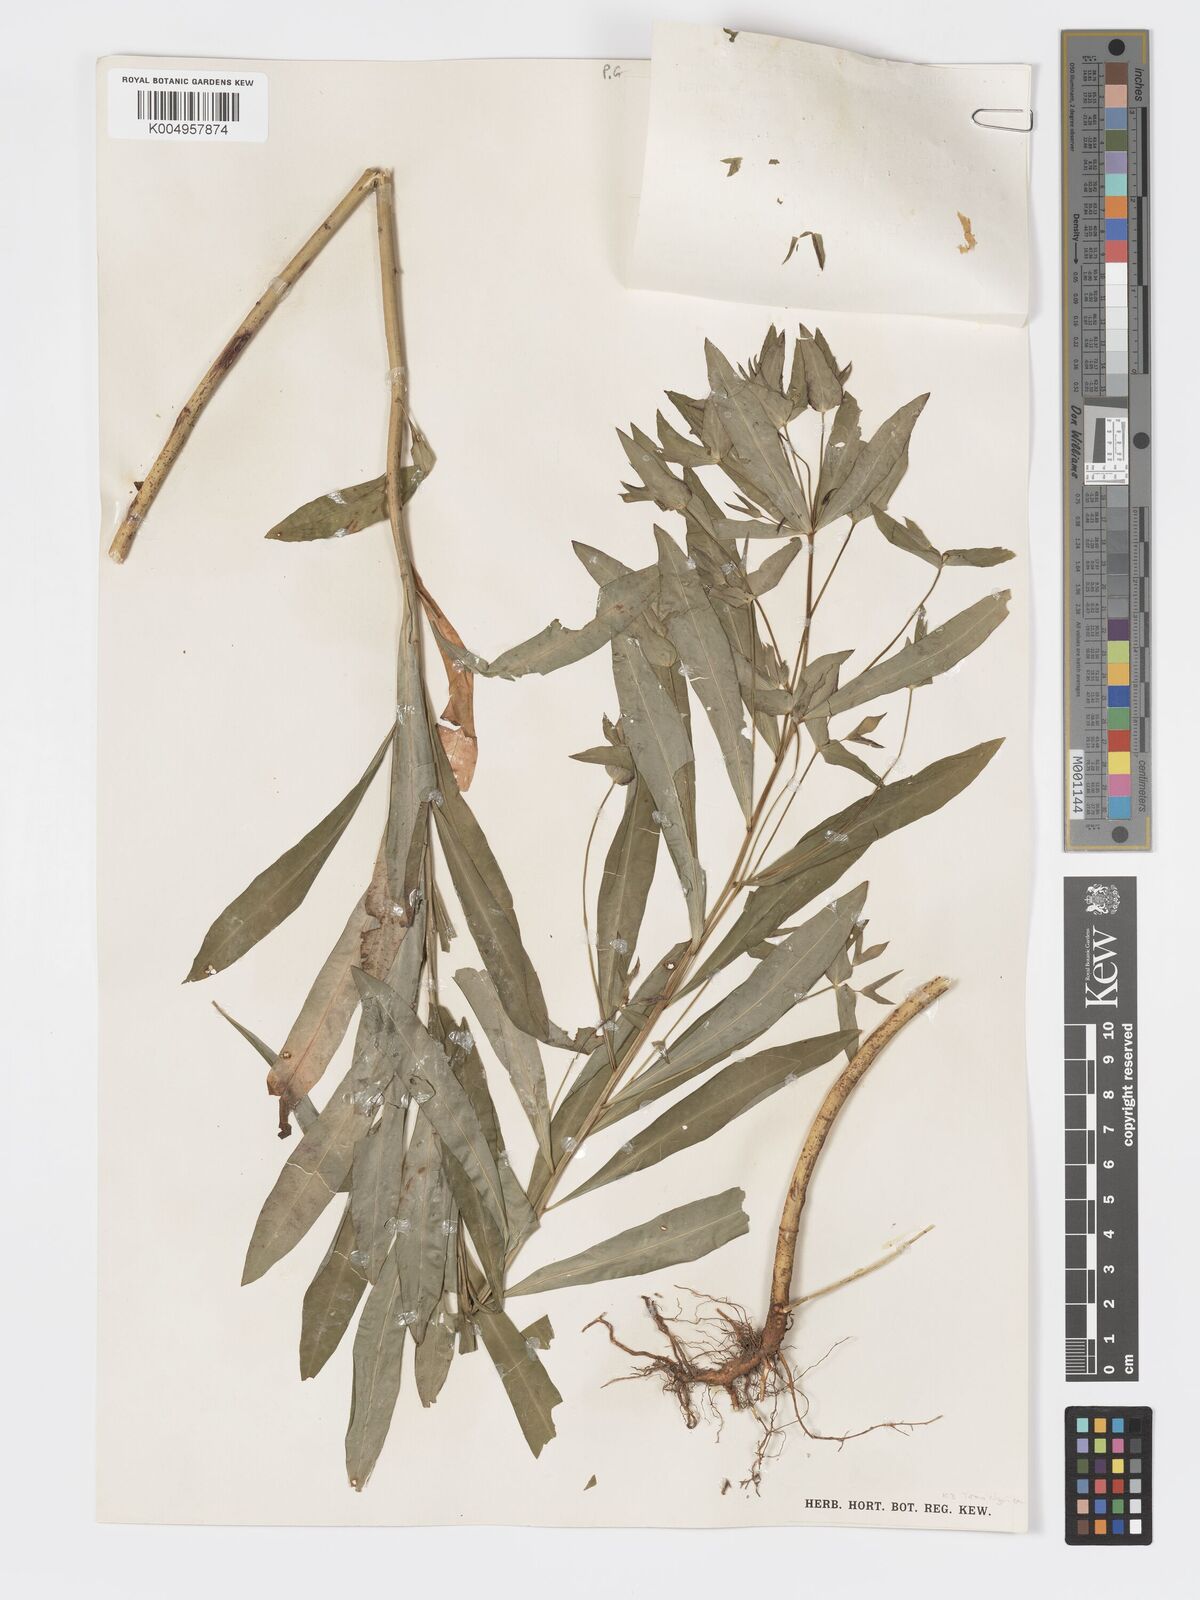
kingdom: Plantae
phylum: Tracheophyta
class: Magnoliopsida
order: Malpighiales
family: Euphorbiaceae
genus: Euphorbia
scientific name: Euphorbia schimperiana
